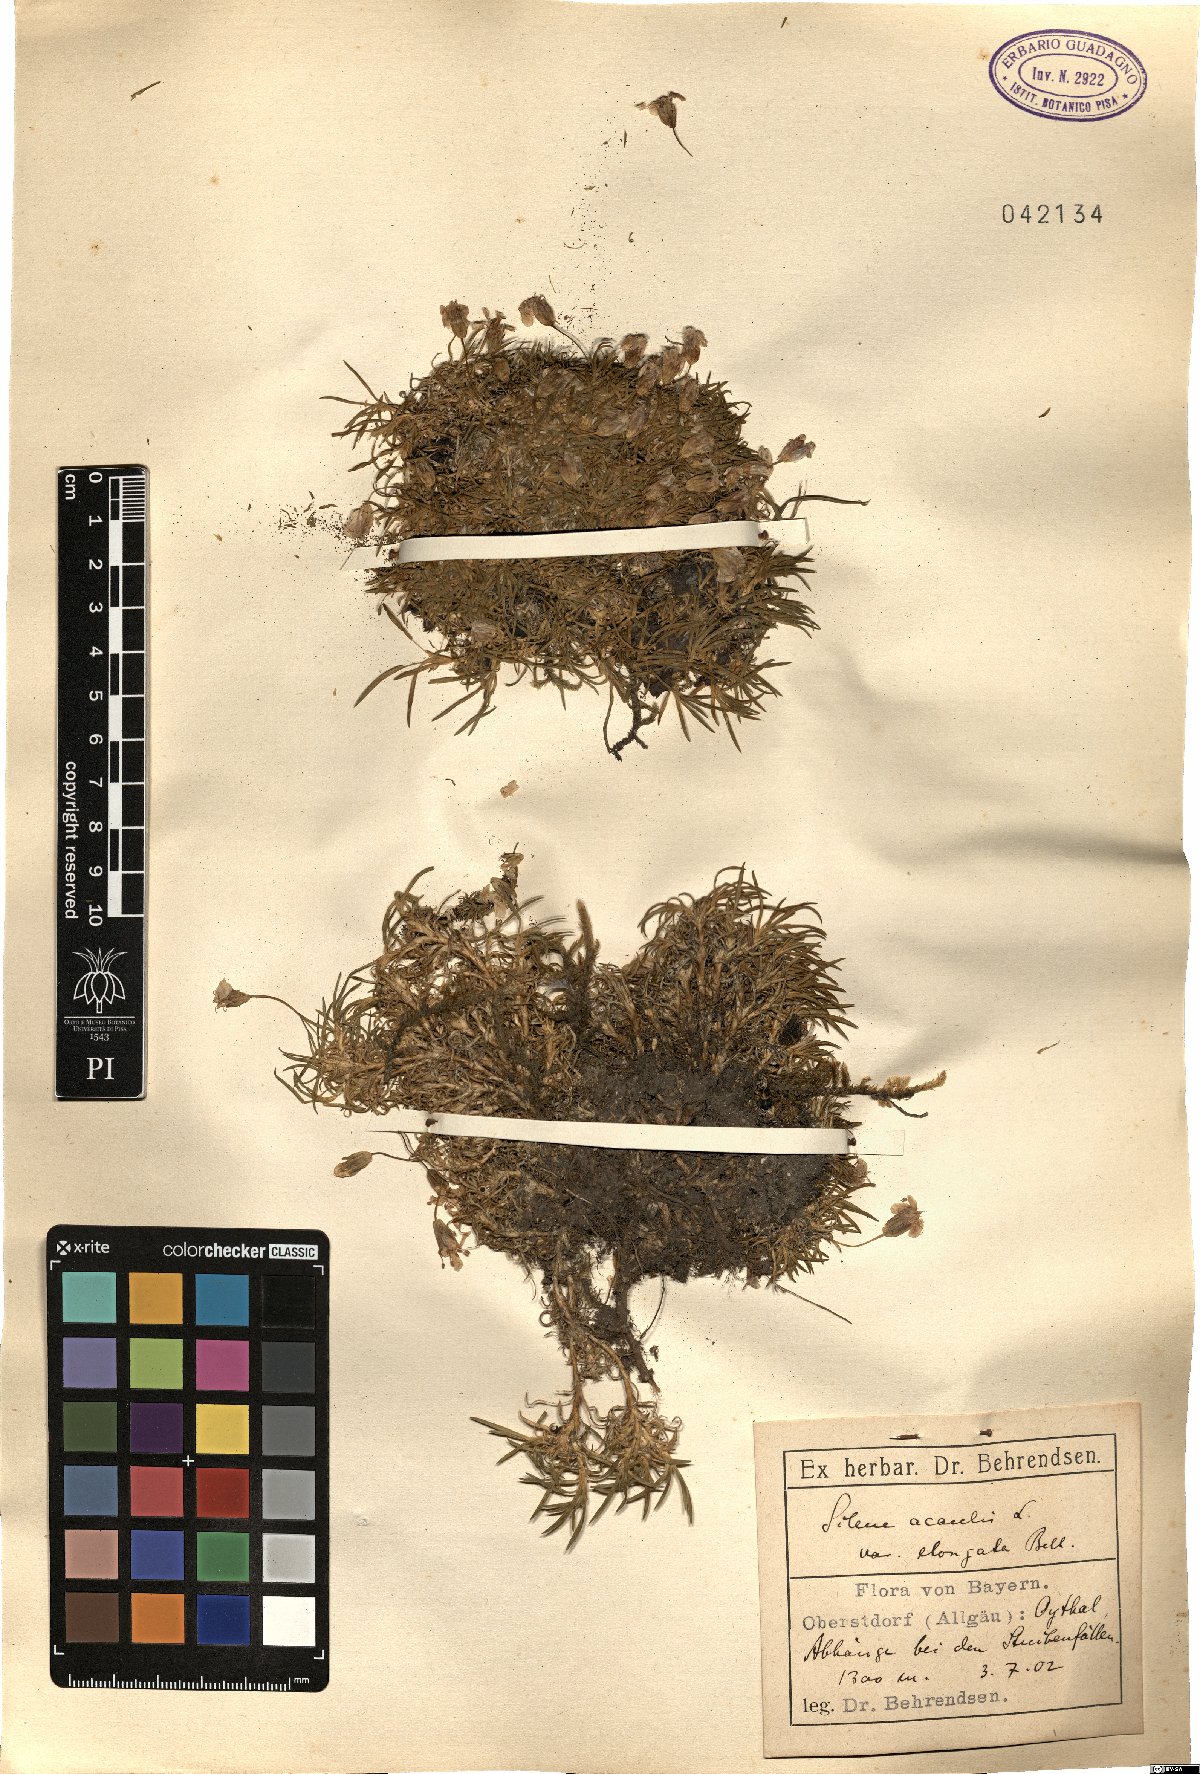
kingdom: Plantae
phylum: Tracheophyta
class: Magnoliopsida
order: Caryophyllales
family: Caryophyllaceae
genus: Silene
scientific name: Silene acaulis
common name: Moss campion
